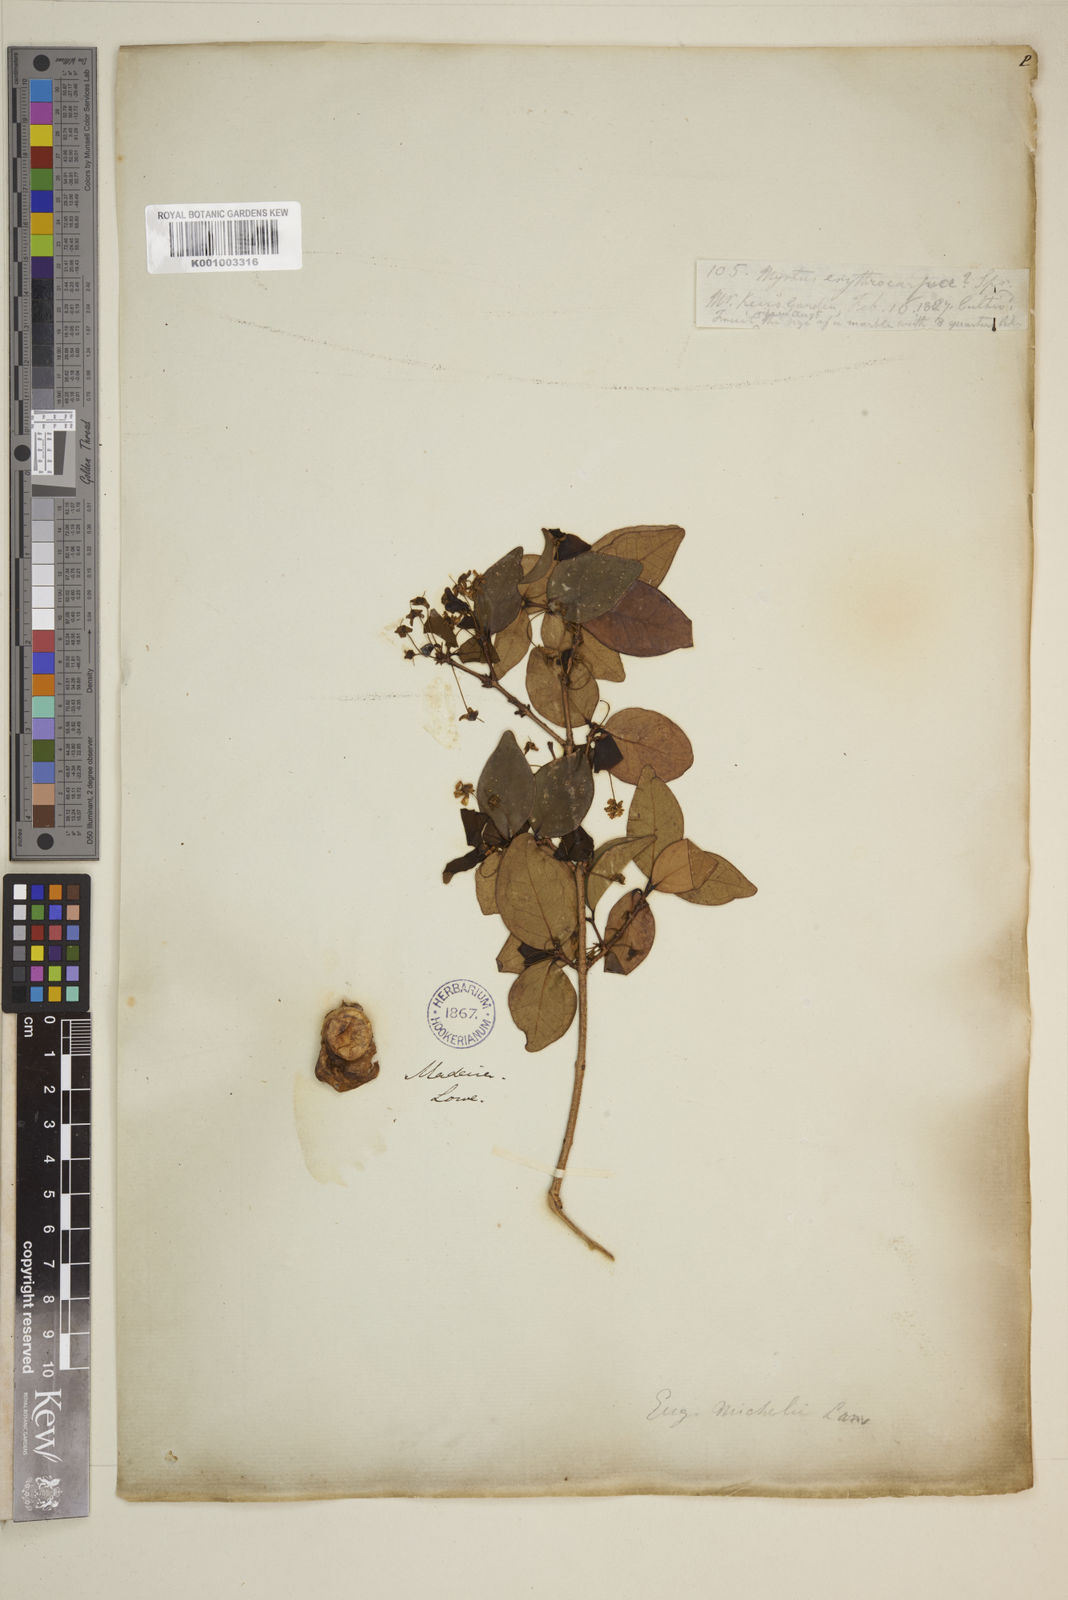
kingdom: Plantae
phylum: Tracheophyta
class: Magnoliopsida
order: Myrtales
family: Myrtaceae
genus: Eugenia
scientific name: Eugenia uniflora
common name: Surinam cherry
